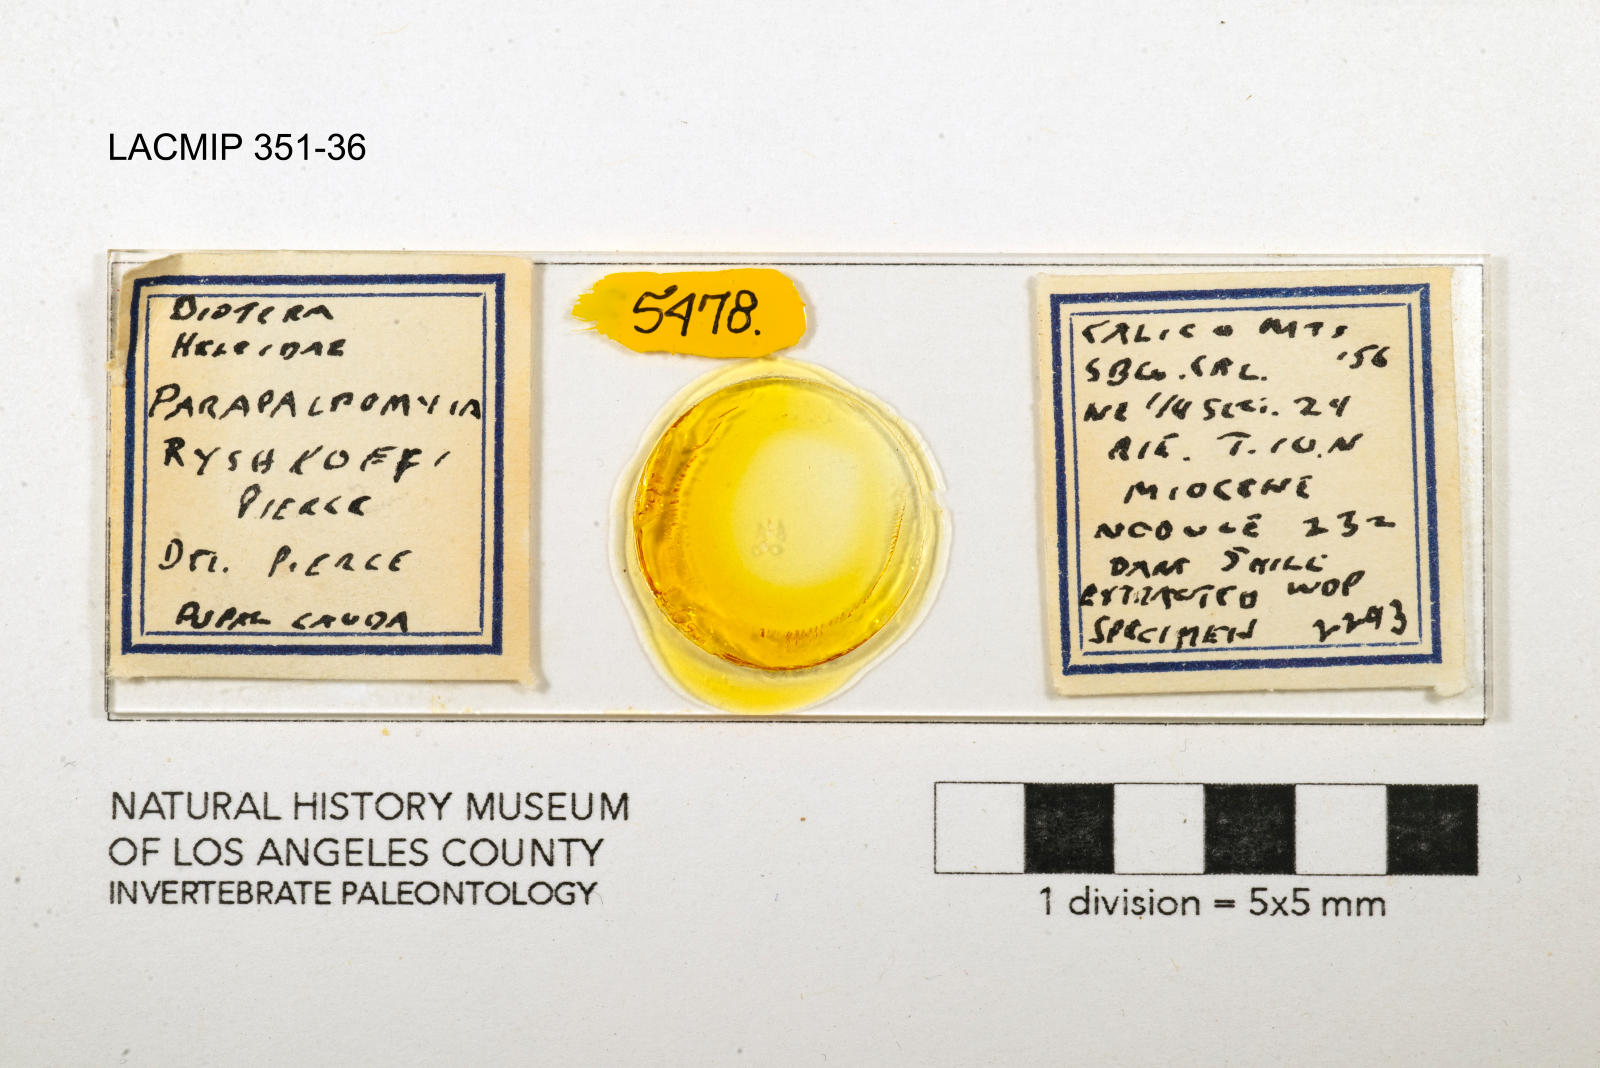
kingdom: Animalia
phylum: Arthropoda
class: Insecta
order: Diptera
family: Ceratopogonidae
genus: Palpomyia
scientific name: Palpomyia ryshkoffi
